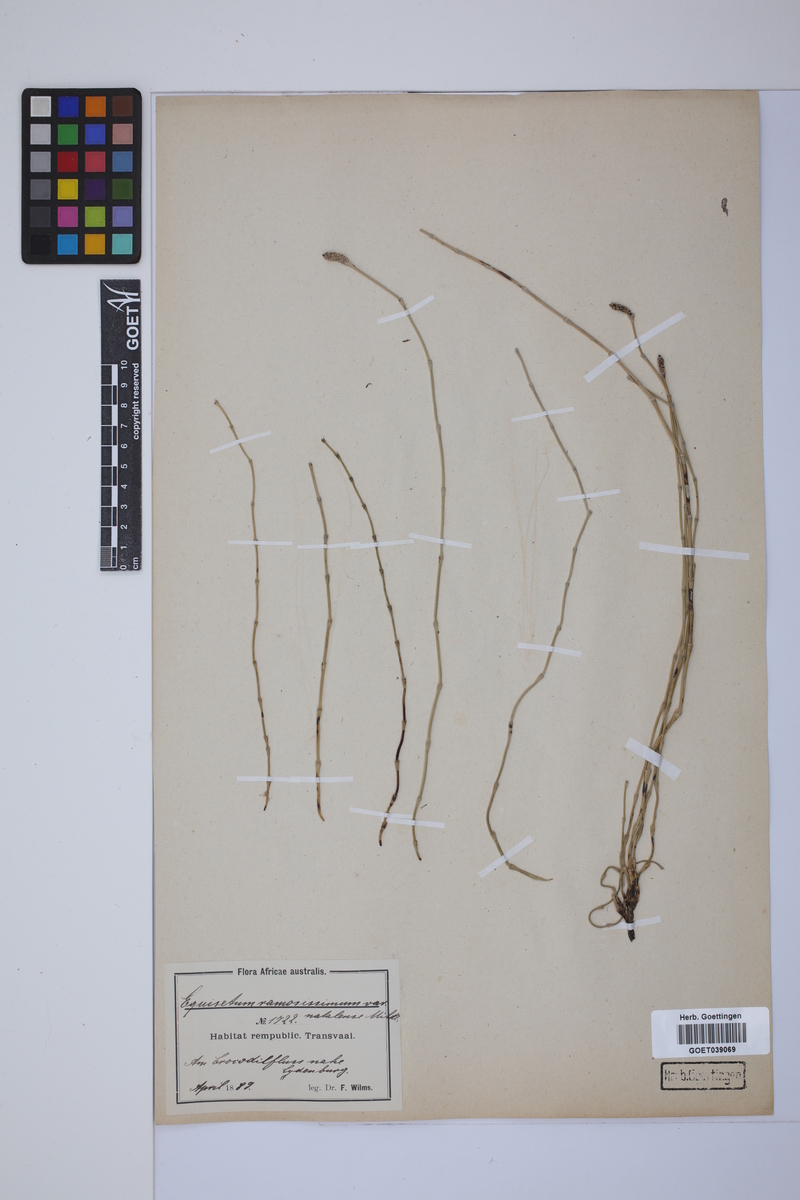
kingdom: Plantae
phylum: Tracheophyta
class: Polypodiopsida
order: Equisetales
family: Equisetaceae
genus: Equisetum
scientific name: Equisetum giganteum
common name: Giant horsetail
